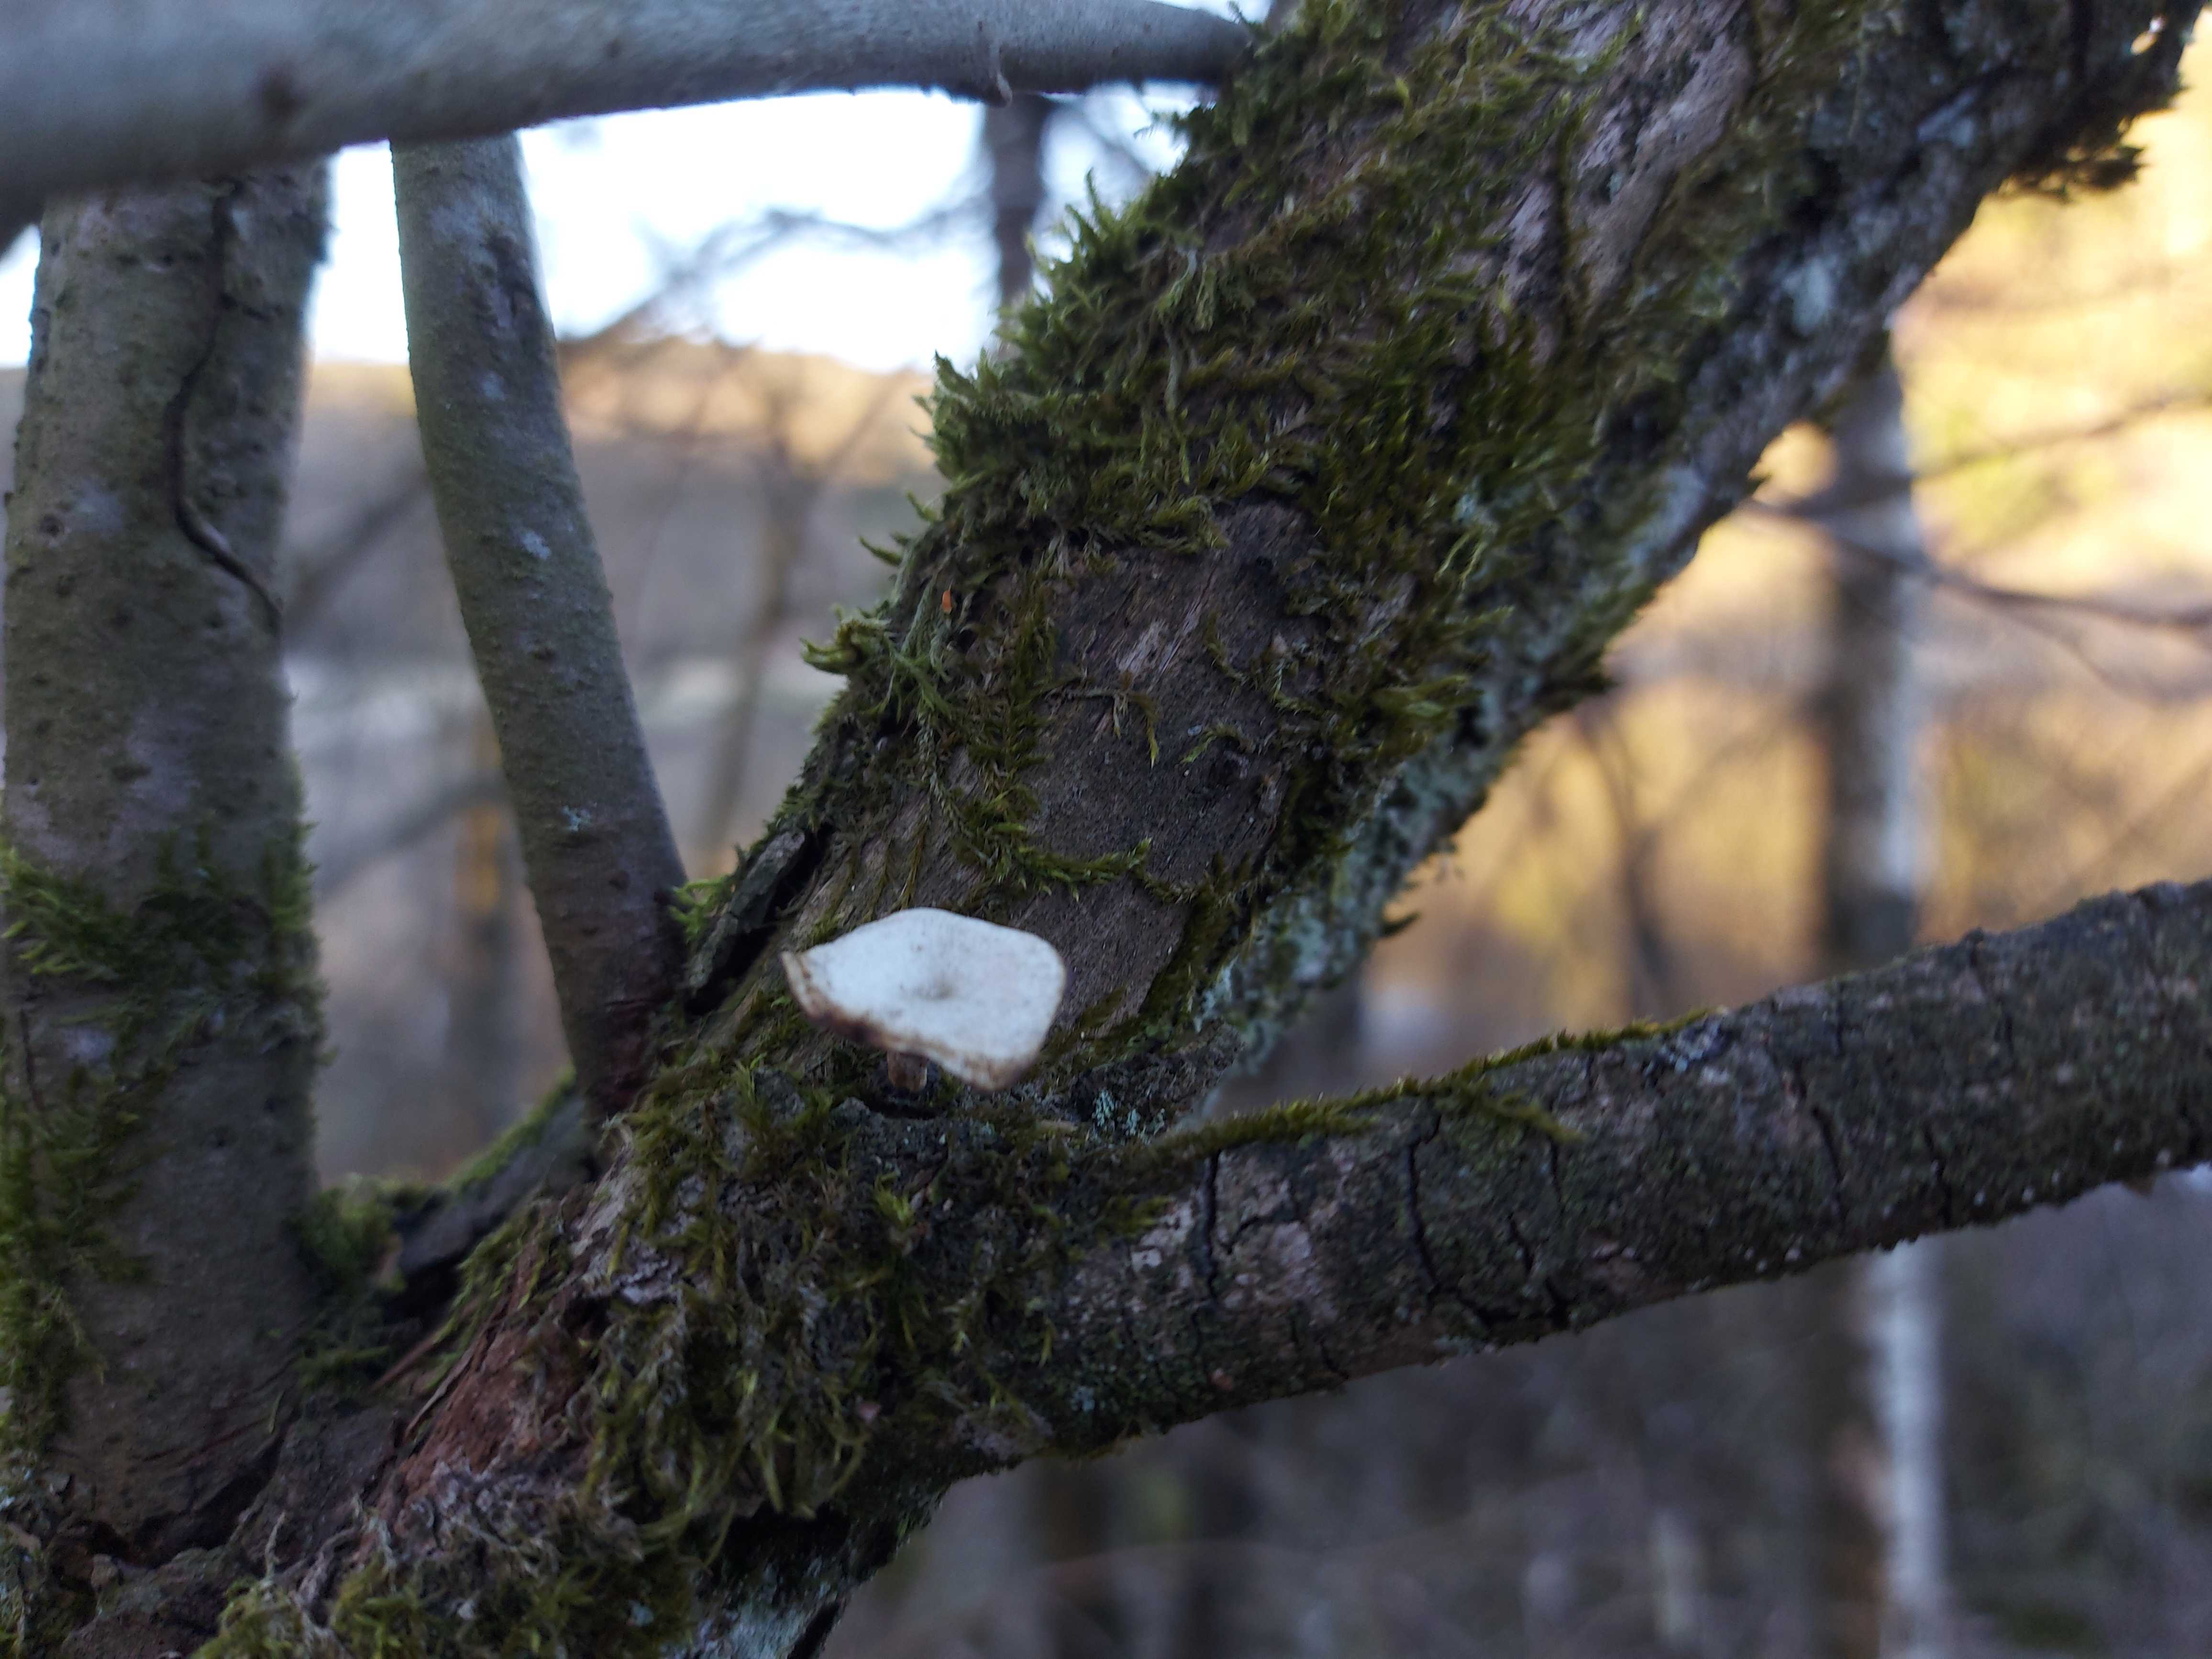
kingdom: Fungi
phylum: Basidiomycota
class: Agaricomycetes
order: Polyporales
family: Polyporaceae
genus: Cerioporus
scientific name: Cerioporus varius
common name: foranderlig stilkporesvamp
